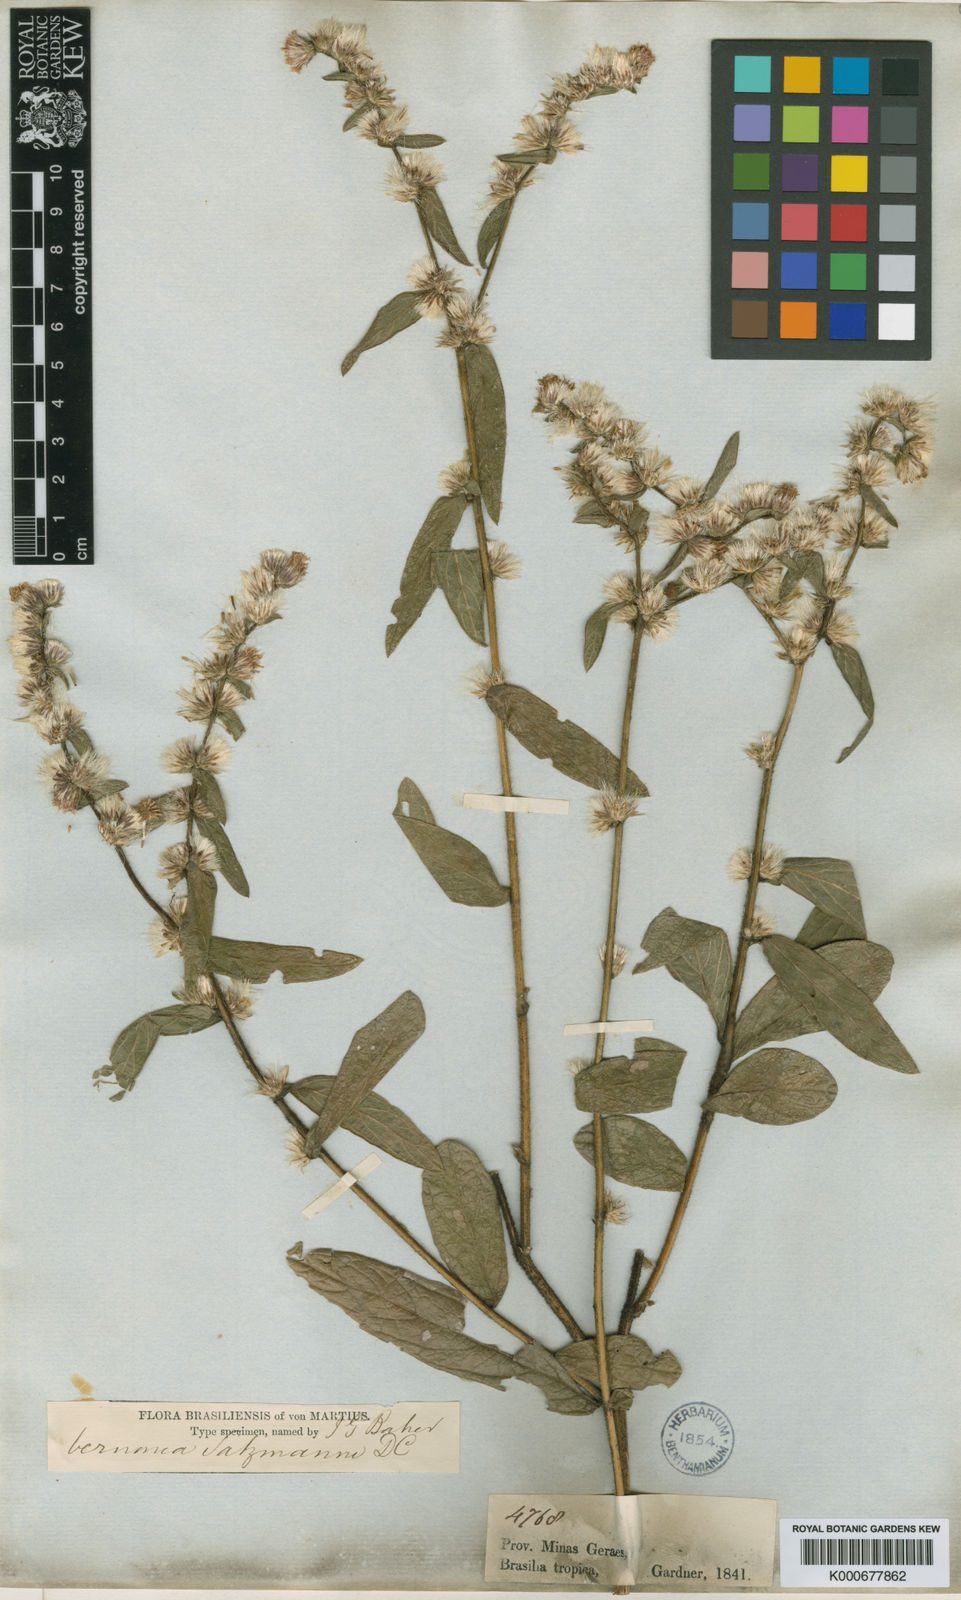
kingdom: Plantae
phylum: Tracheophyta
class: Magnoliopsida
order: Asterales
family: Asteraceae
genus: Lepidaploa
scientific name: Lepidaploa salzmannii
